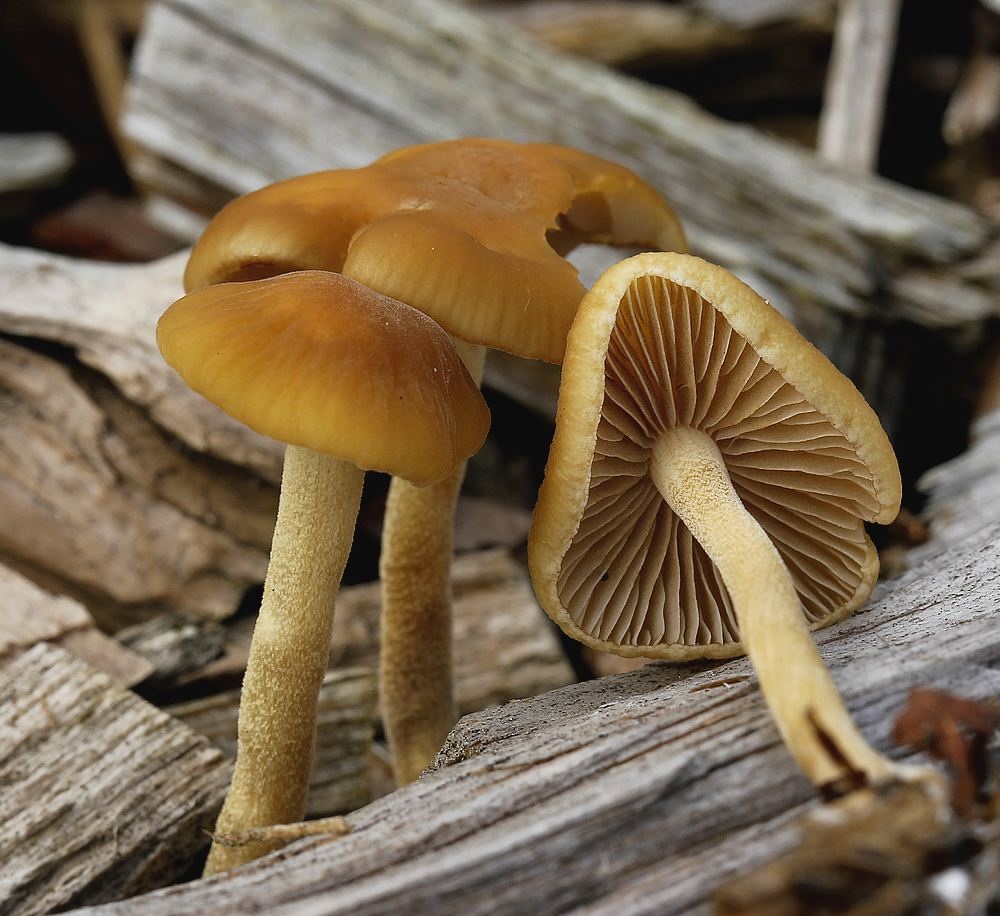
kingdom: Fungi
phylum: Basidiomycota
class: Agaricomycetes
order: Agaricales
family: Strophariaceae
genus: Agrocybe
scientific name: Agrocybe arvalis
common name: rodslående agerhat
